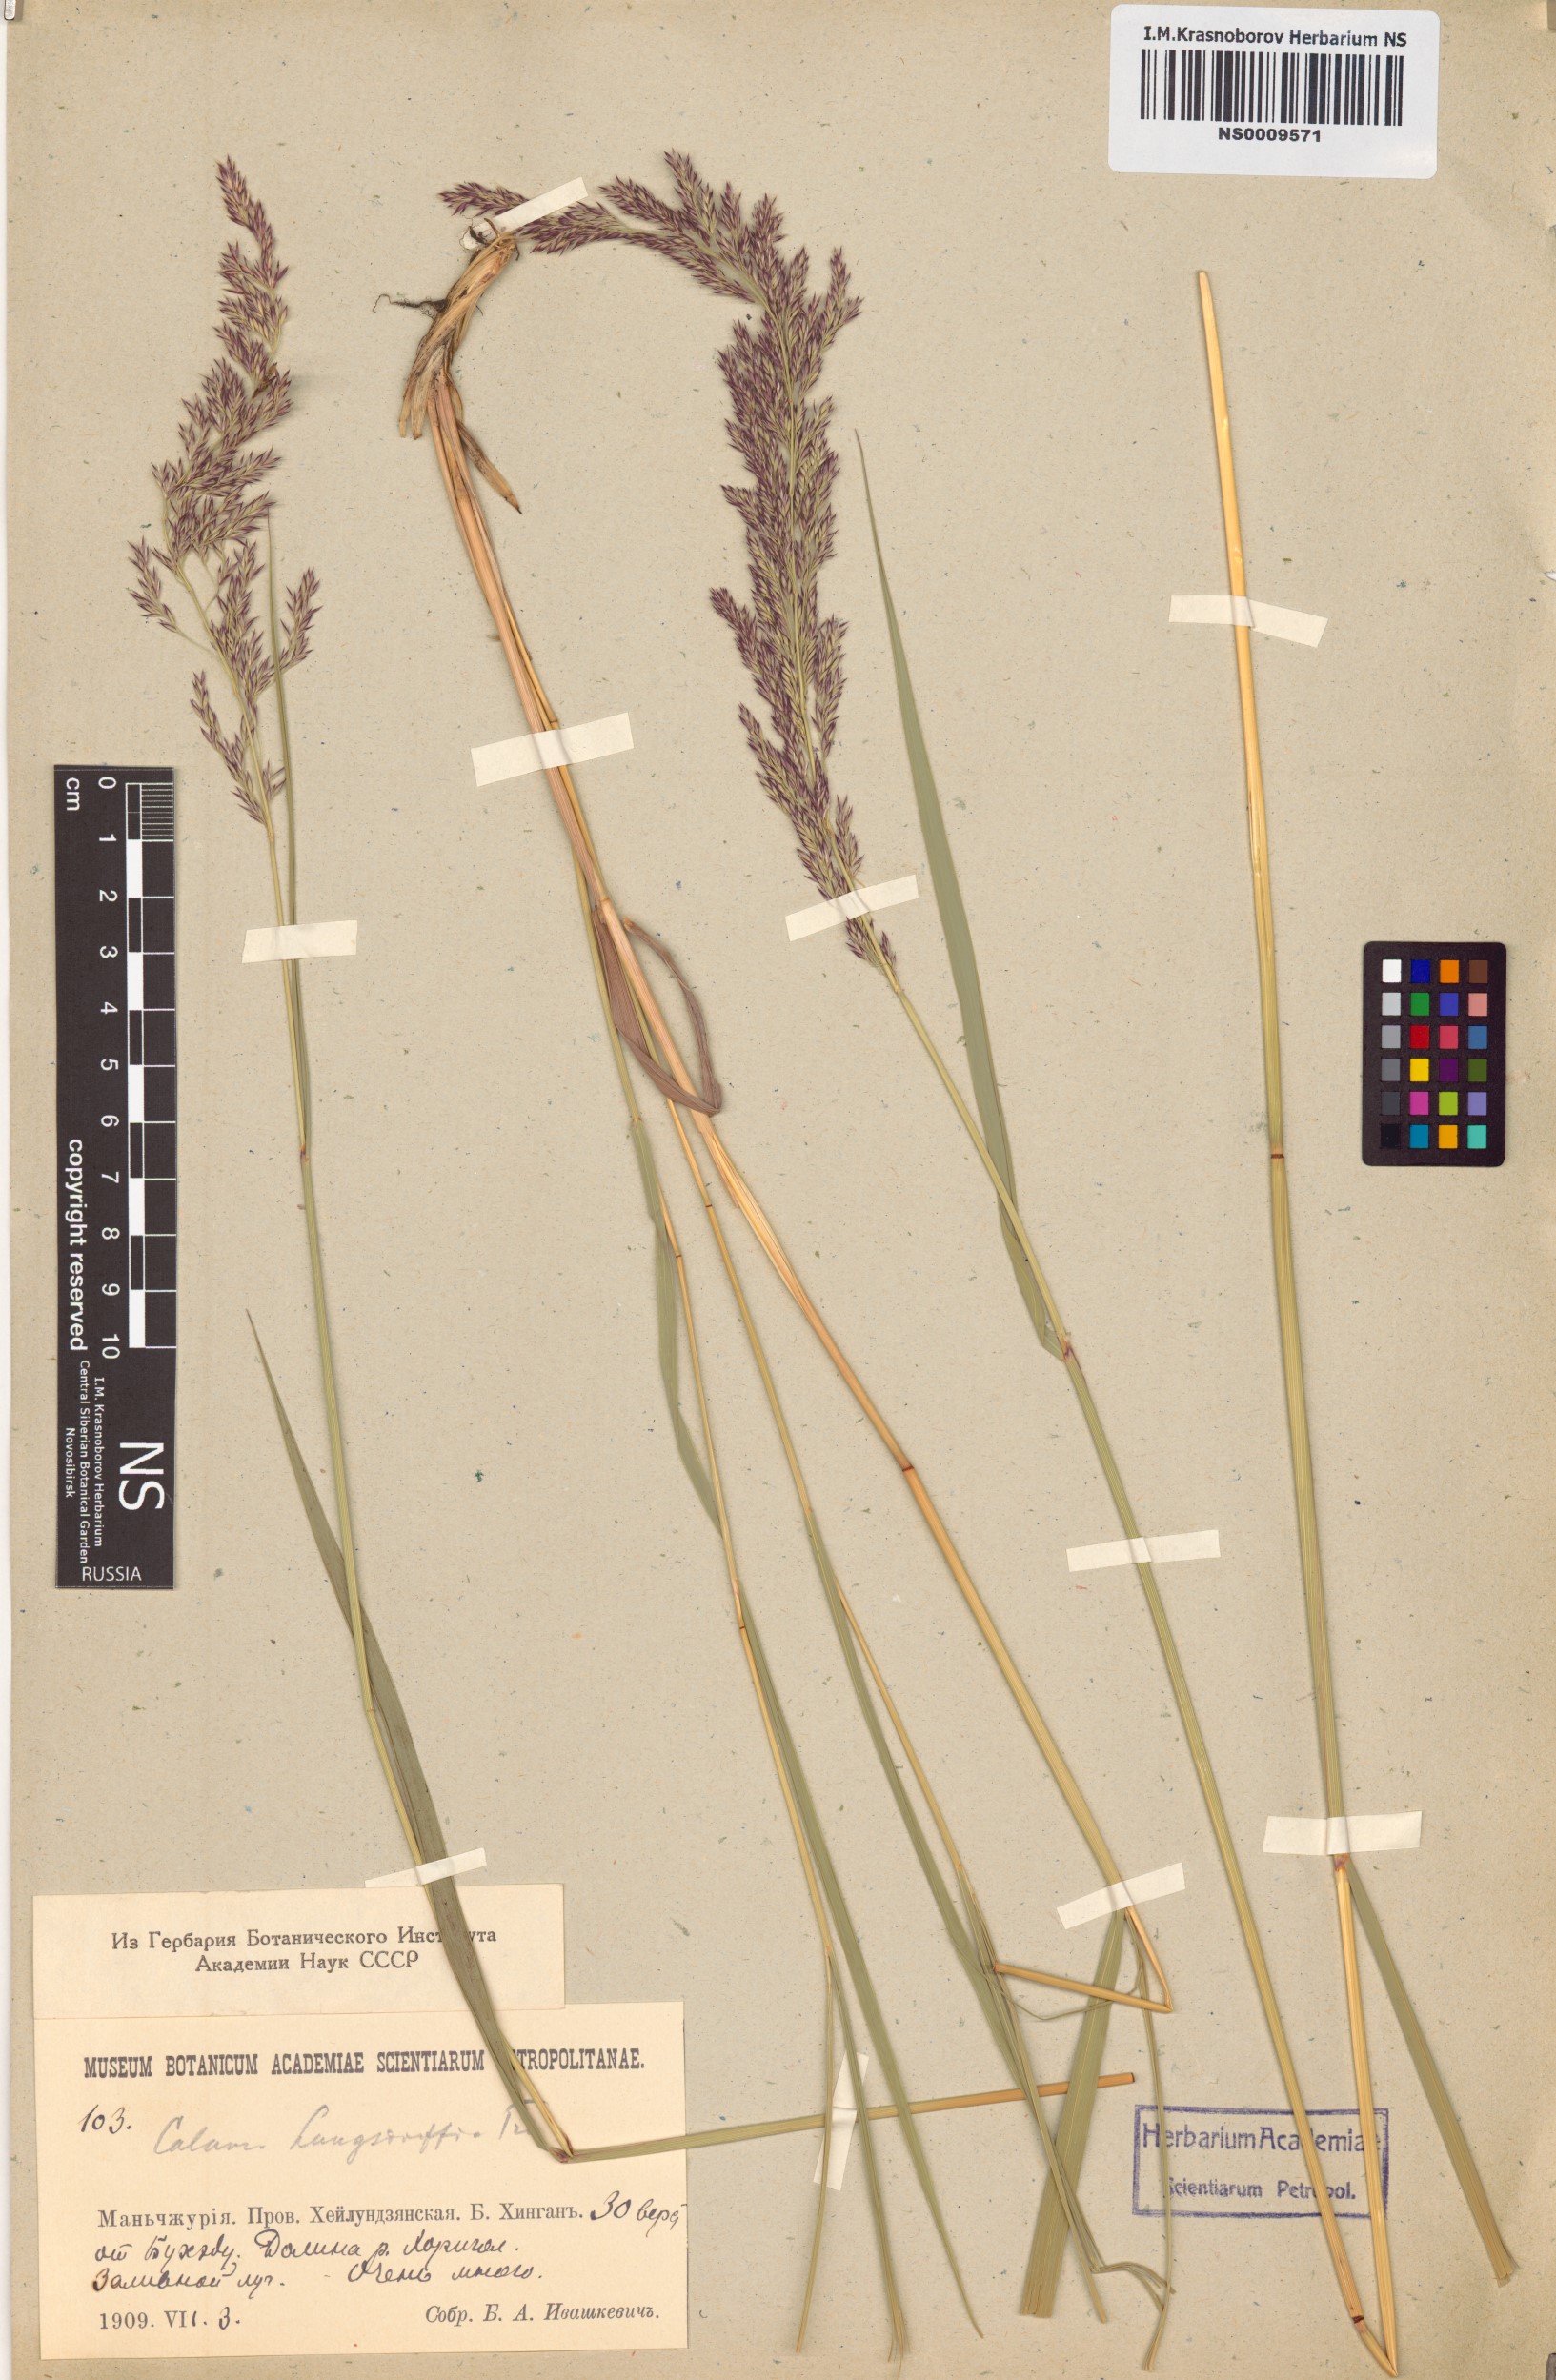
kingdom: Plantae
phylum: Tracheophyta
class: Liliopsida
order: Poales
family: Poaceae
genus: Calamagrostis
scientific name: Calamagrostis purpurea
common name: Scandinavian small-reed
